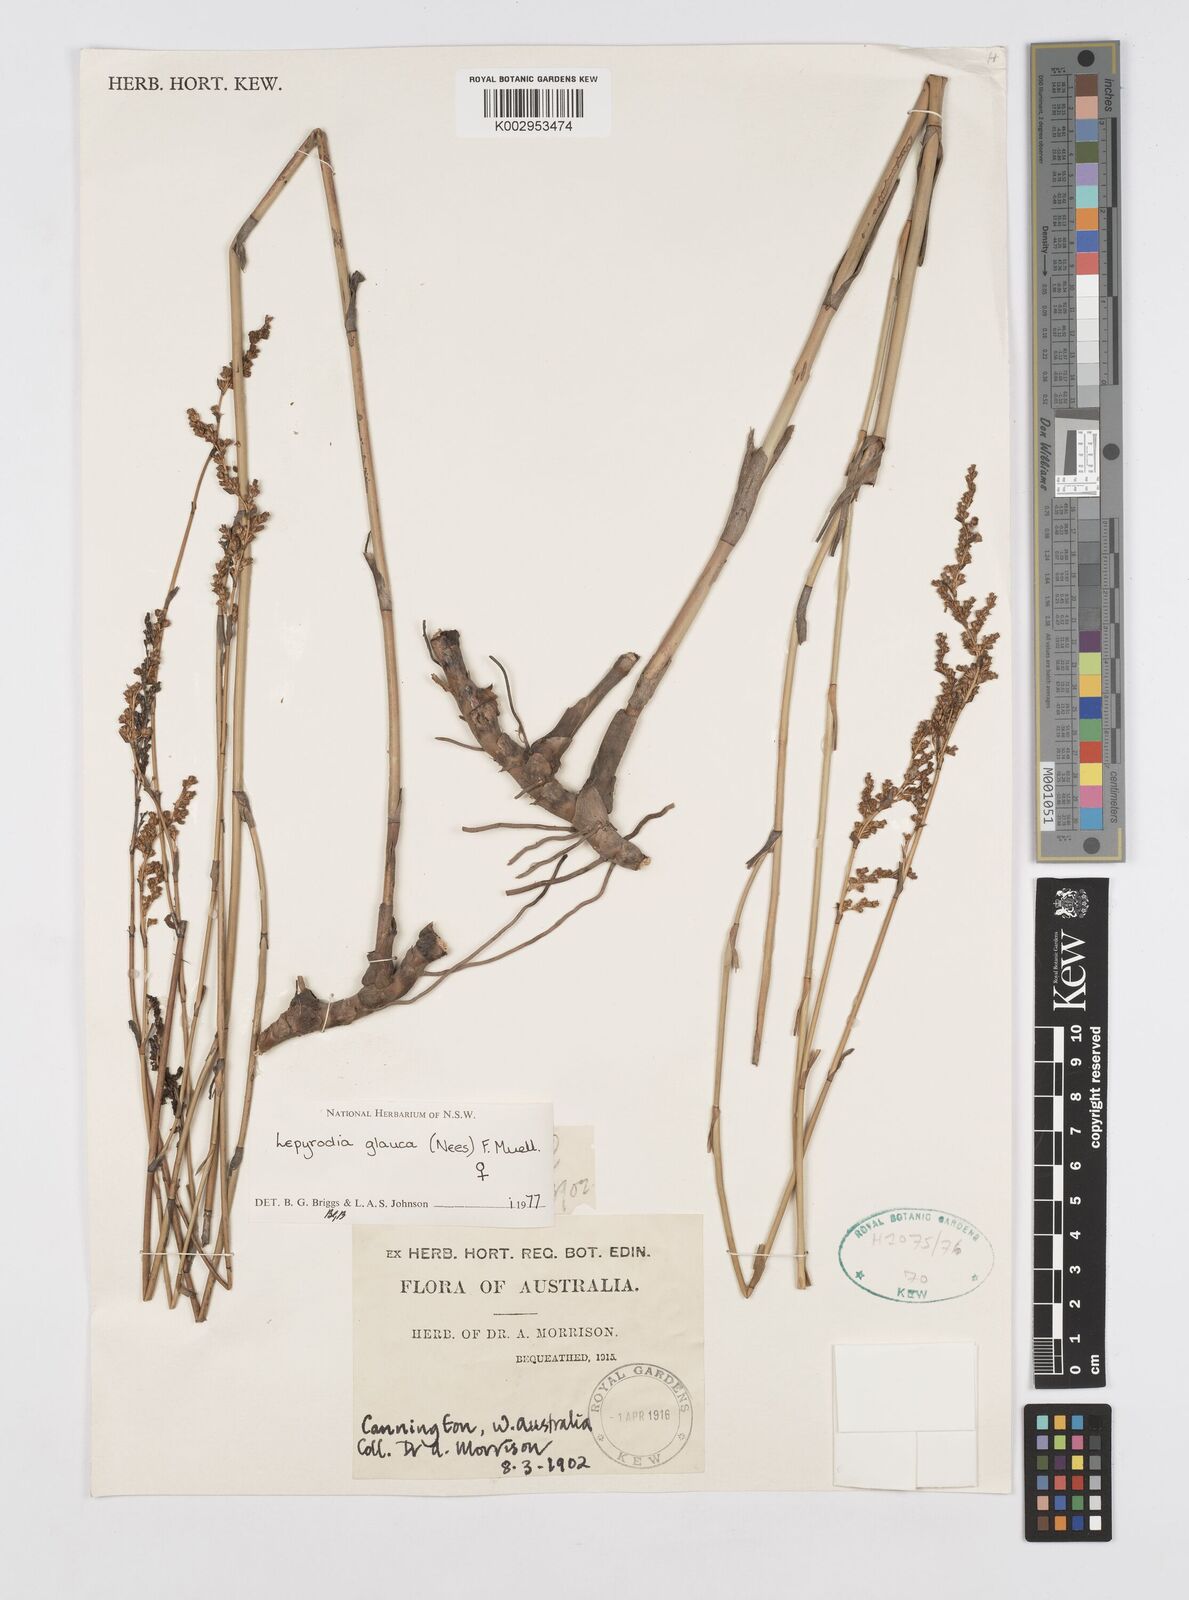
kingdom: Plantae
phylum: Tracheophyta
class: Liliopsida
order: Poales
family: Restionaceae
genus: Lepyrodia
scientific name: Lepyrodia glauca
